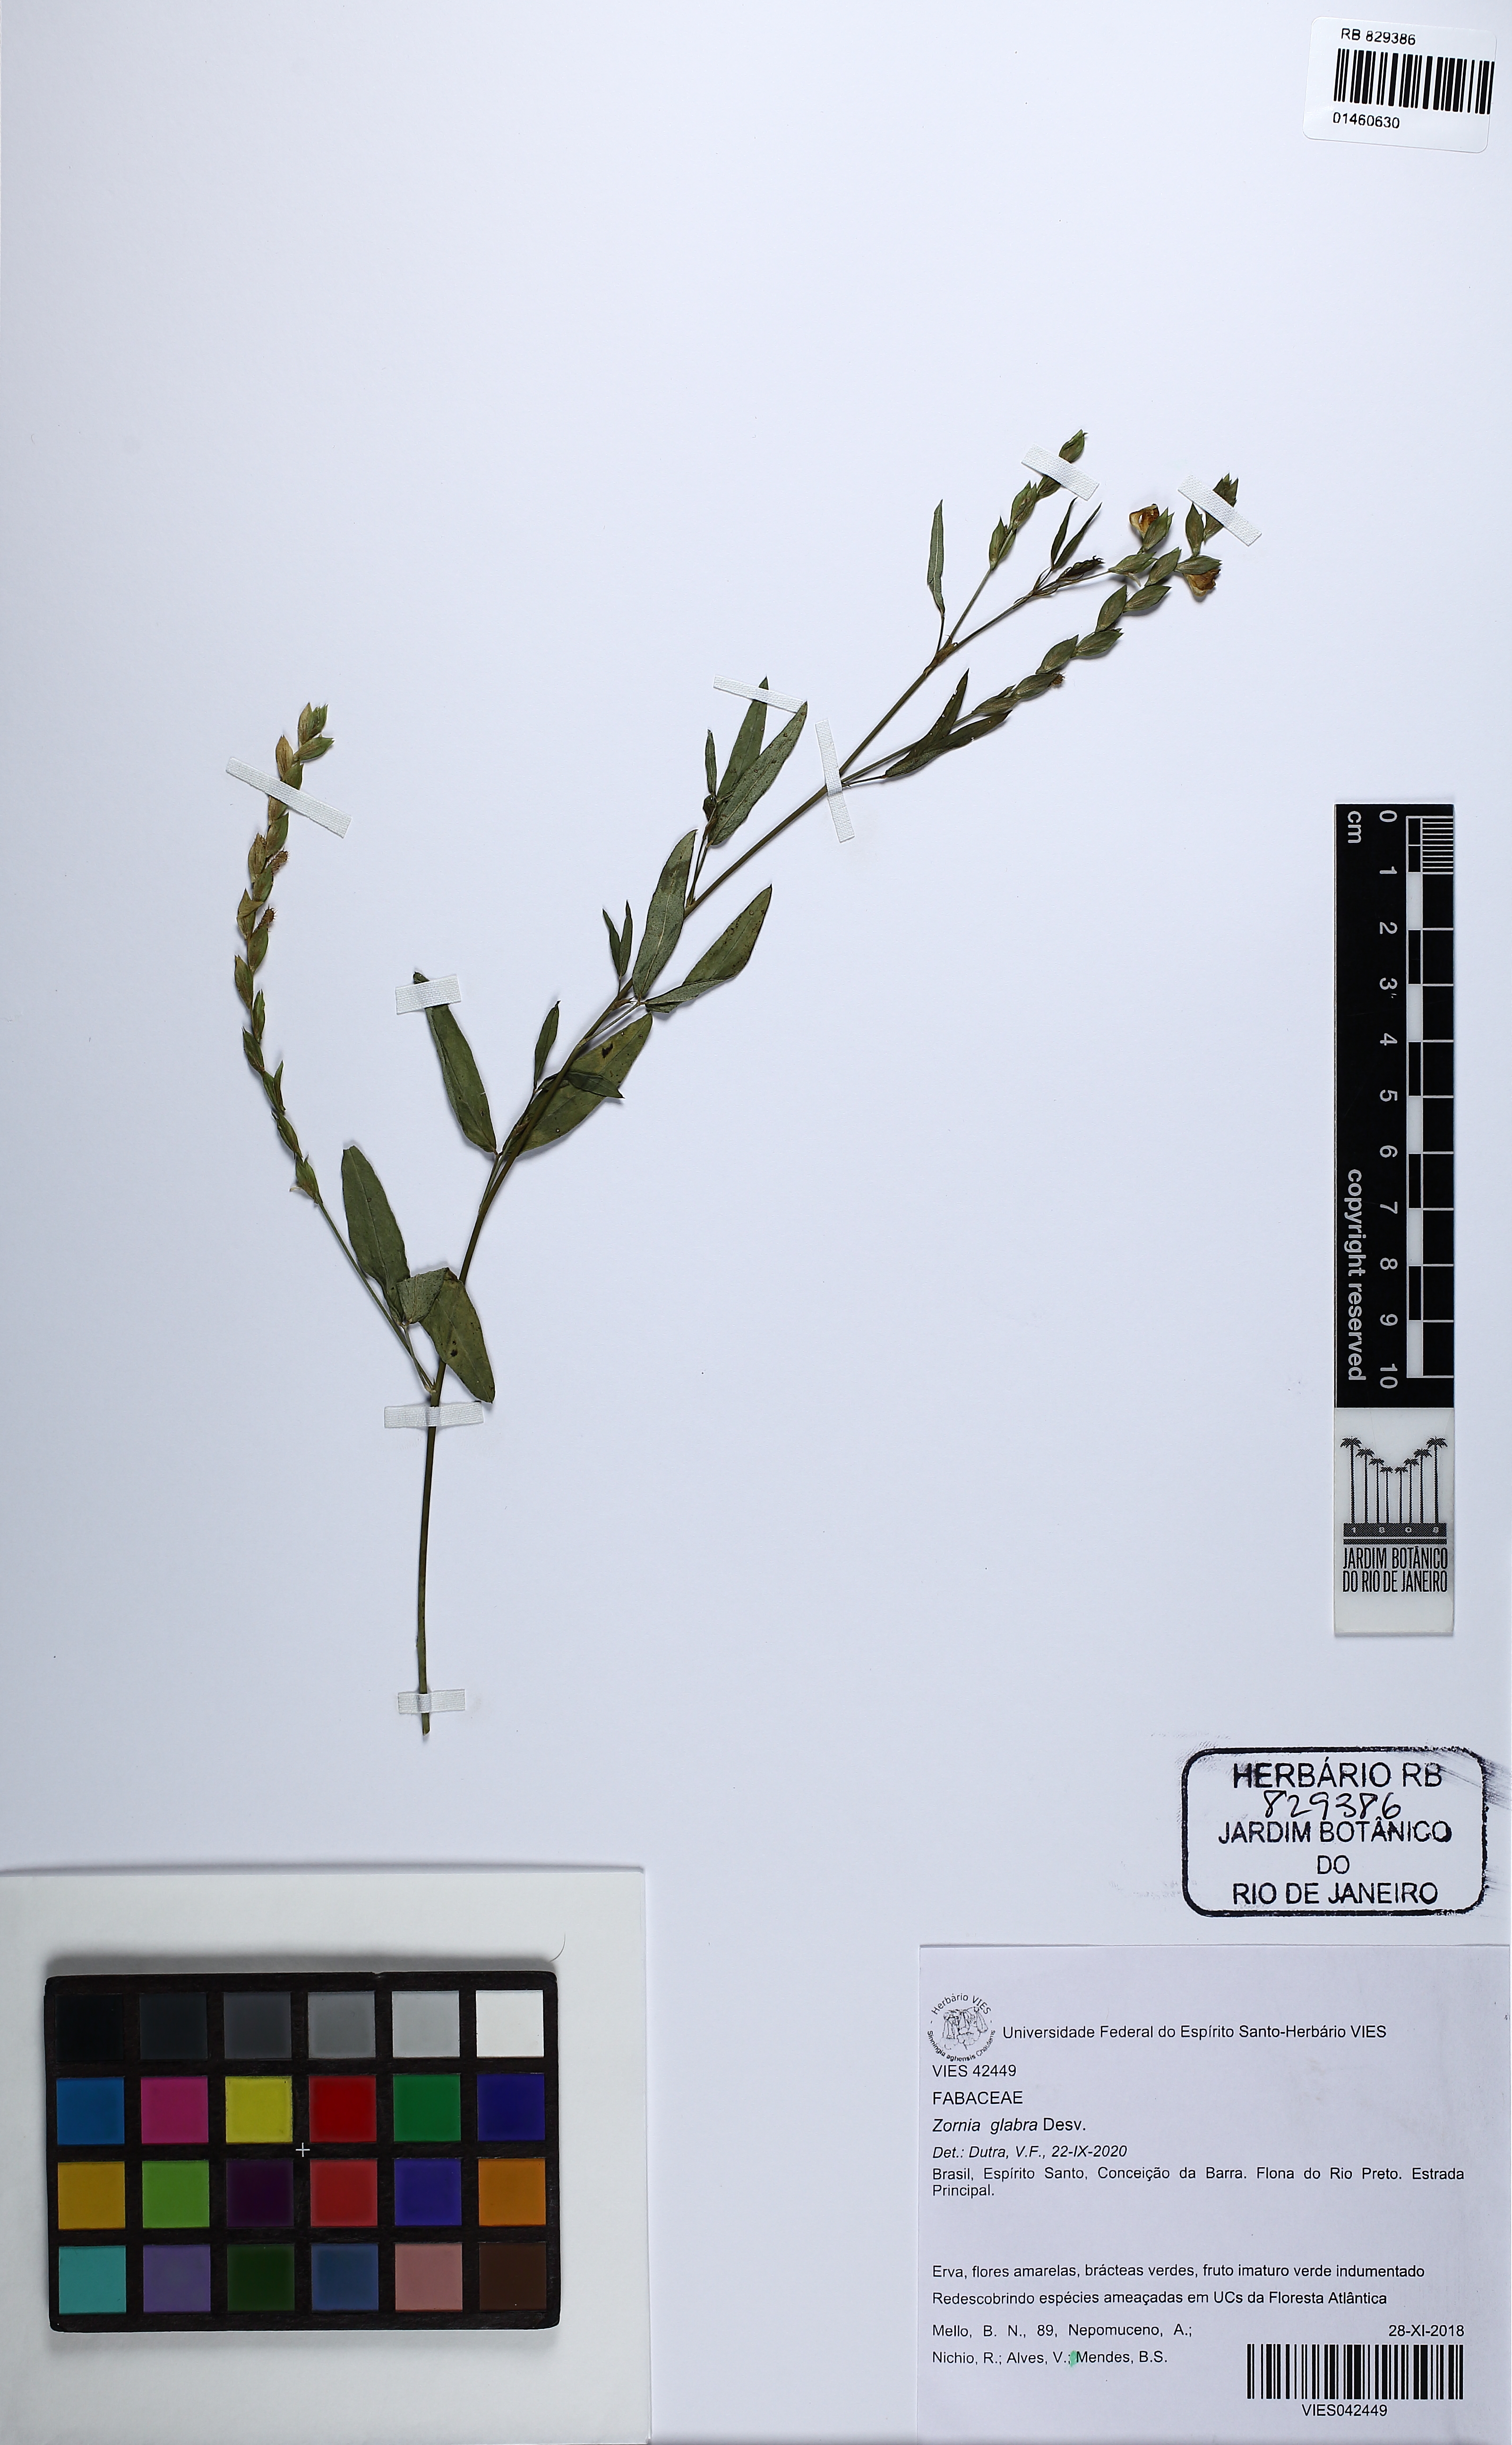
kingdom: Plantae
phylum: Tracheophyta
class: Magnoliopsida
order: Fabales
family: Fabaceae
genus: Zornia
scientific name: Zornia glabra
